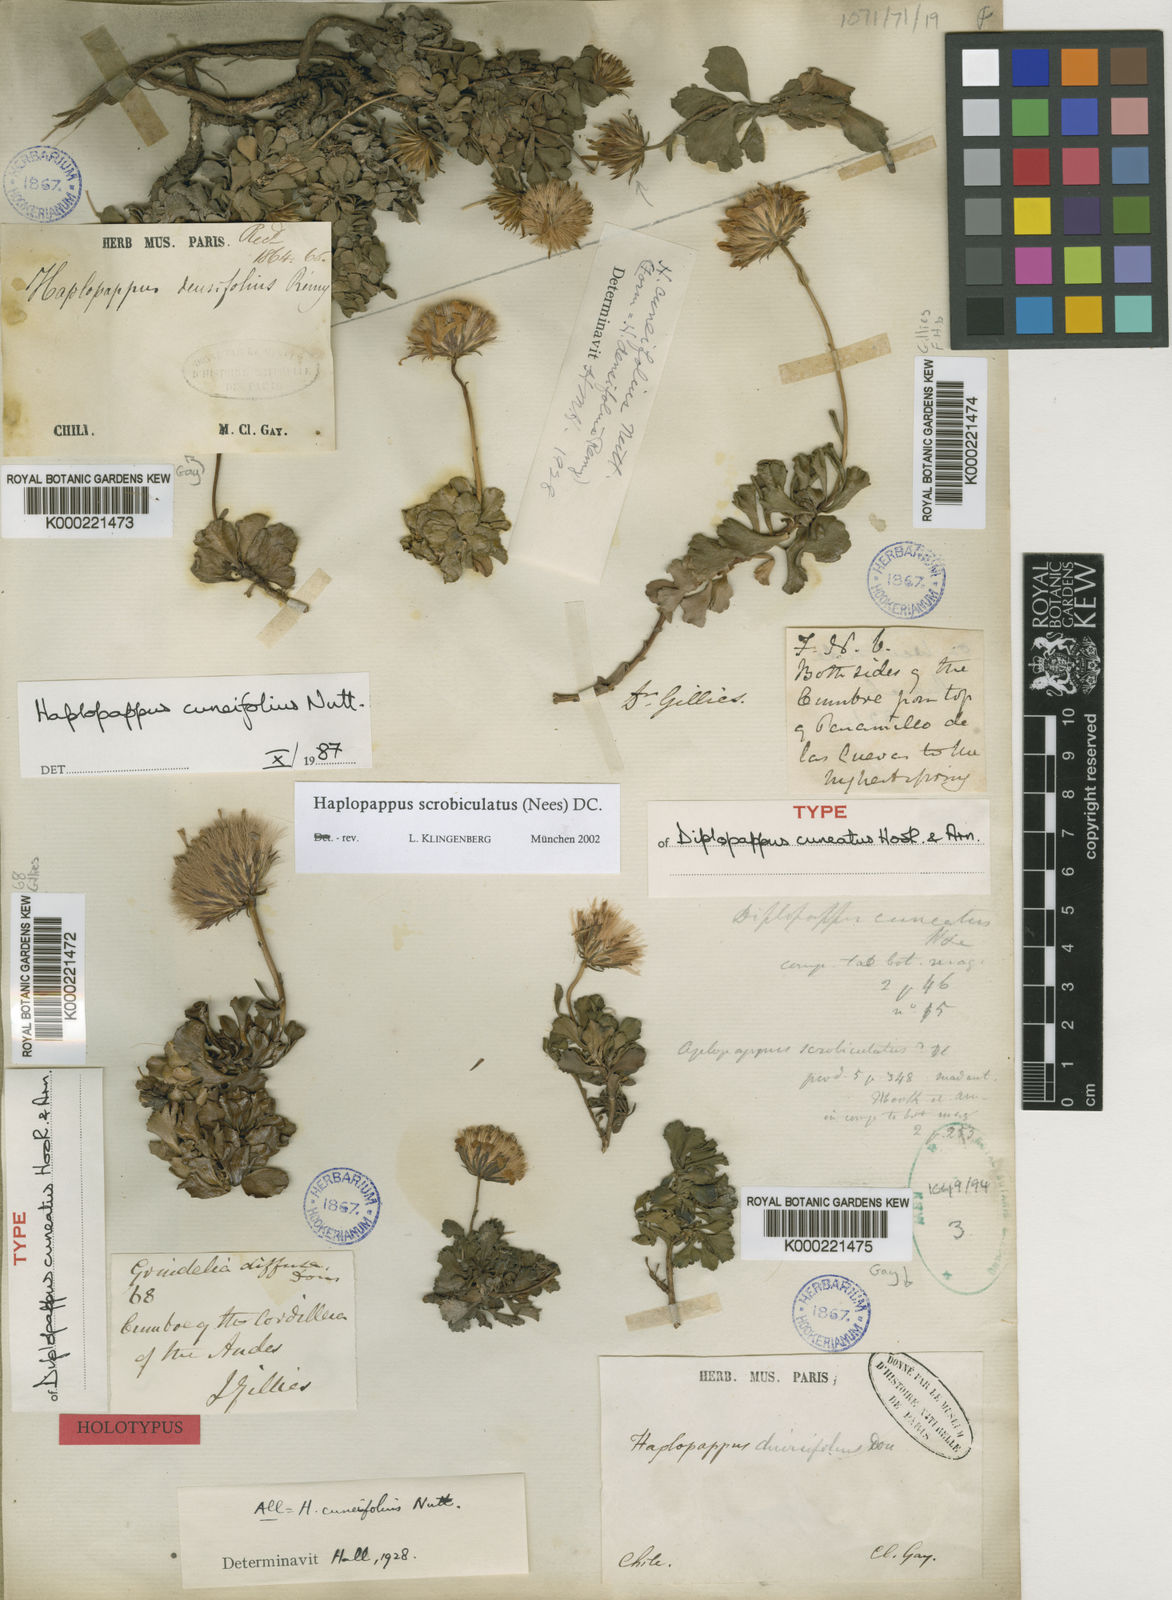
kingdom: Plantae
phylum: Tracheophyta
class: Magnoliopsida
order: Asterales
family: Asteraceae
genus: Haplopappus
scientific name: Haplopappus pusillus
